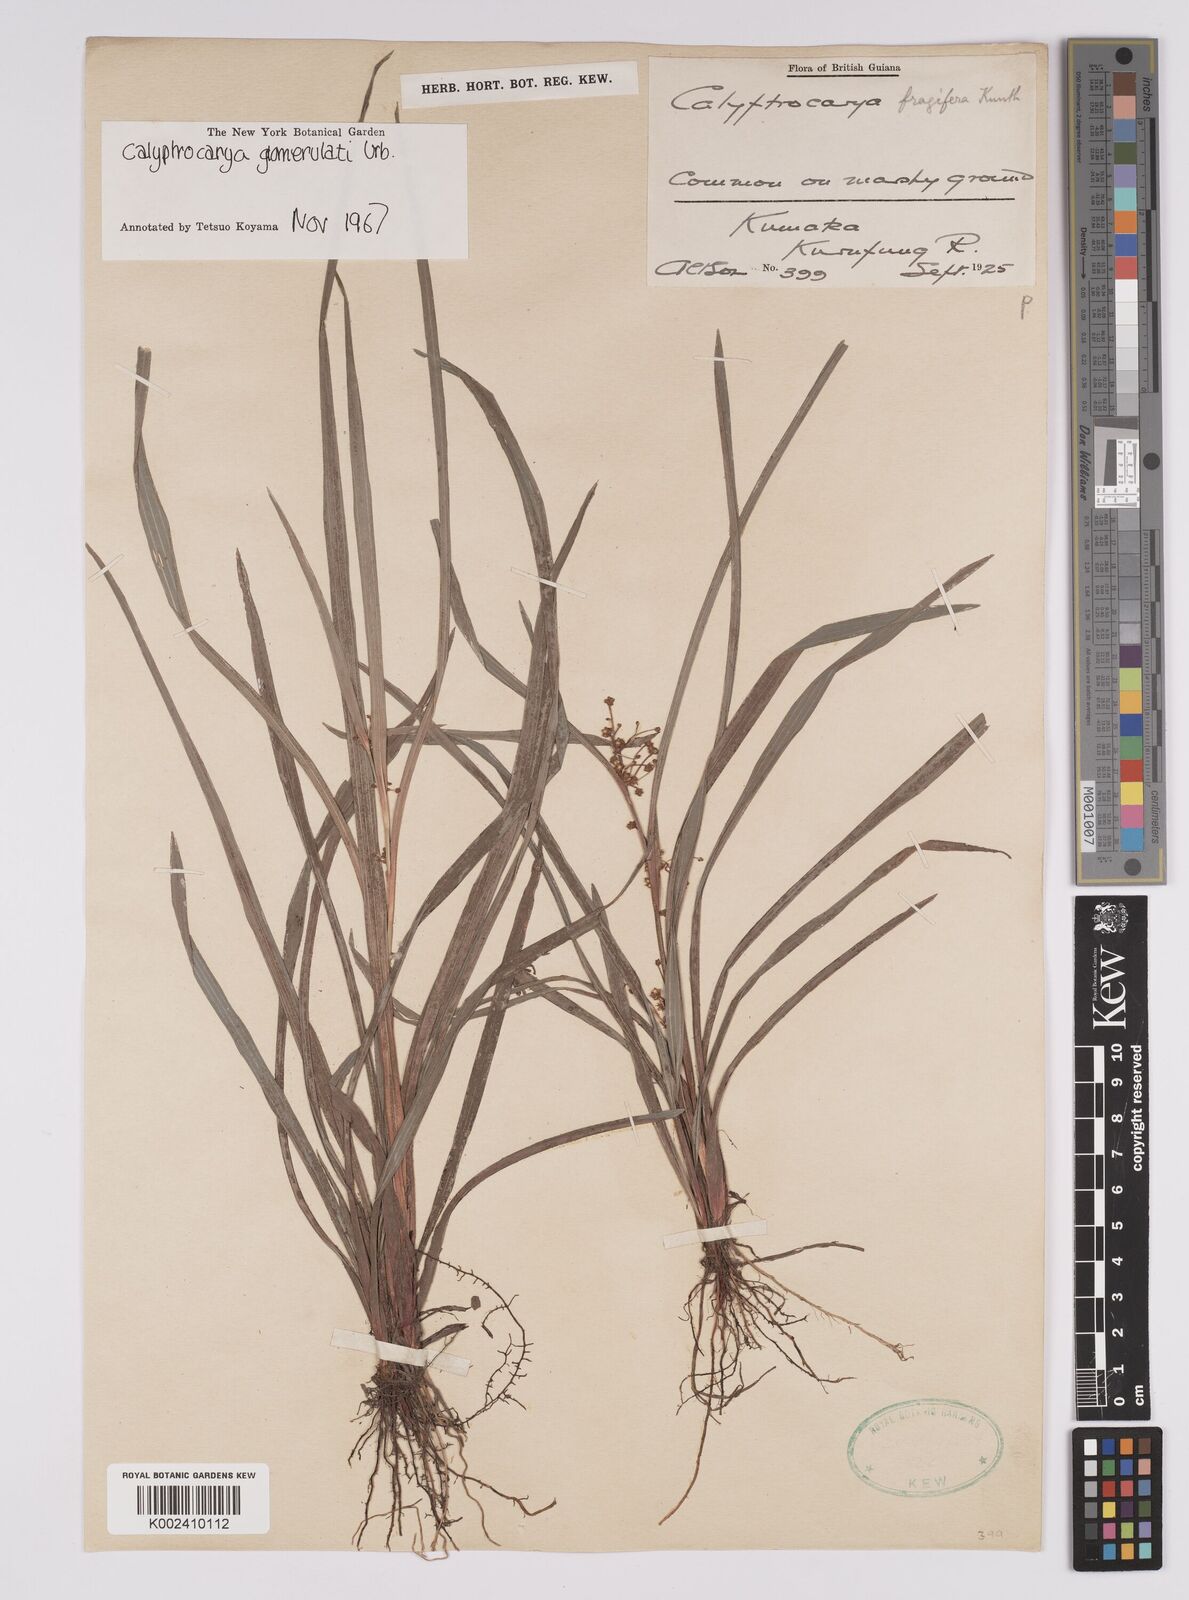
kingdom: Plantae
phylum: Tracheophyta
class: Liliopsida
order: Poales
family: Cyperaceae
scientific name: Cyperaceae
